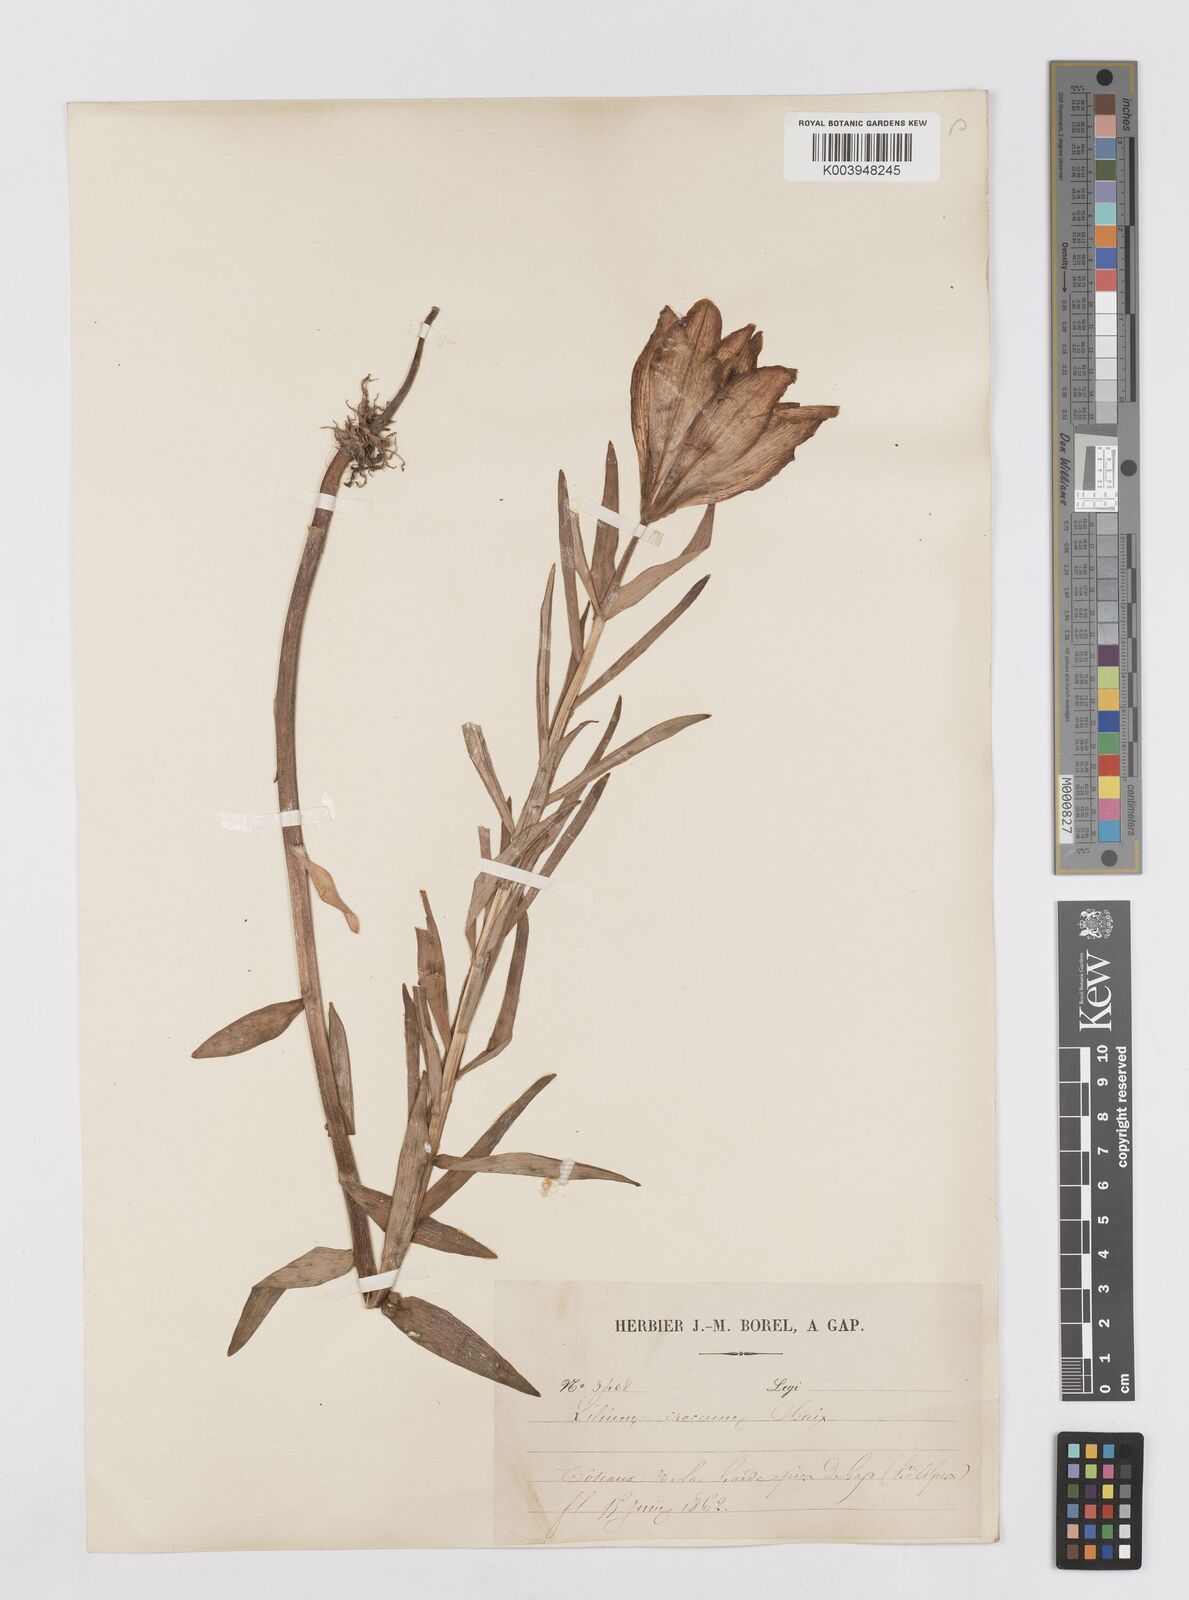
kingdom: Plantae
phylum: Tracheophyta
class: Liliopsida
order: Liliales
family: Liliaceae
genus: Lilium
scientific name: Lilium bulbiferum
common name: Orange lily
